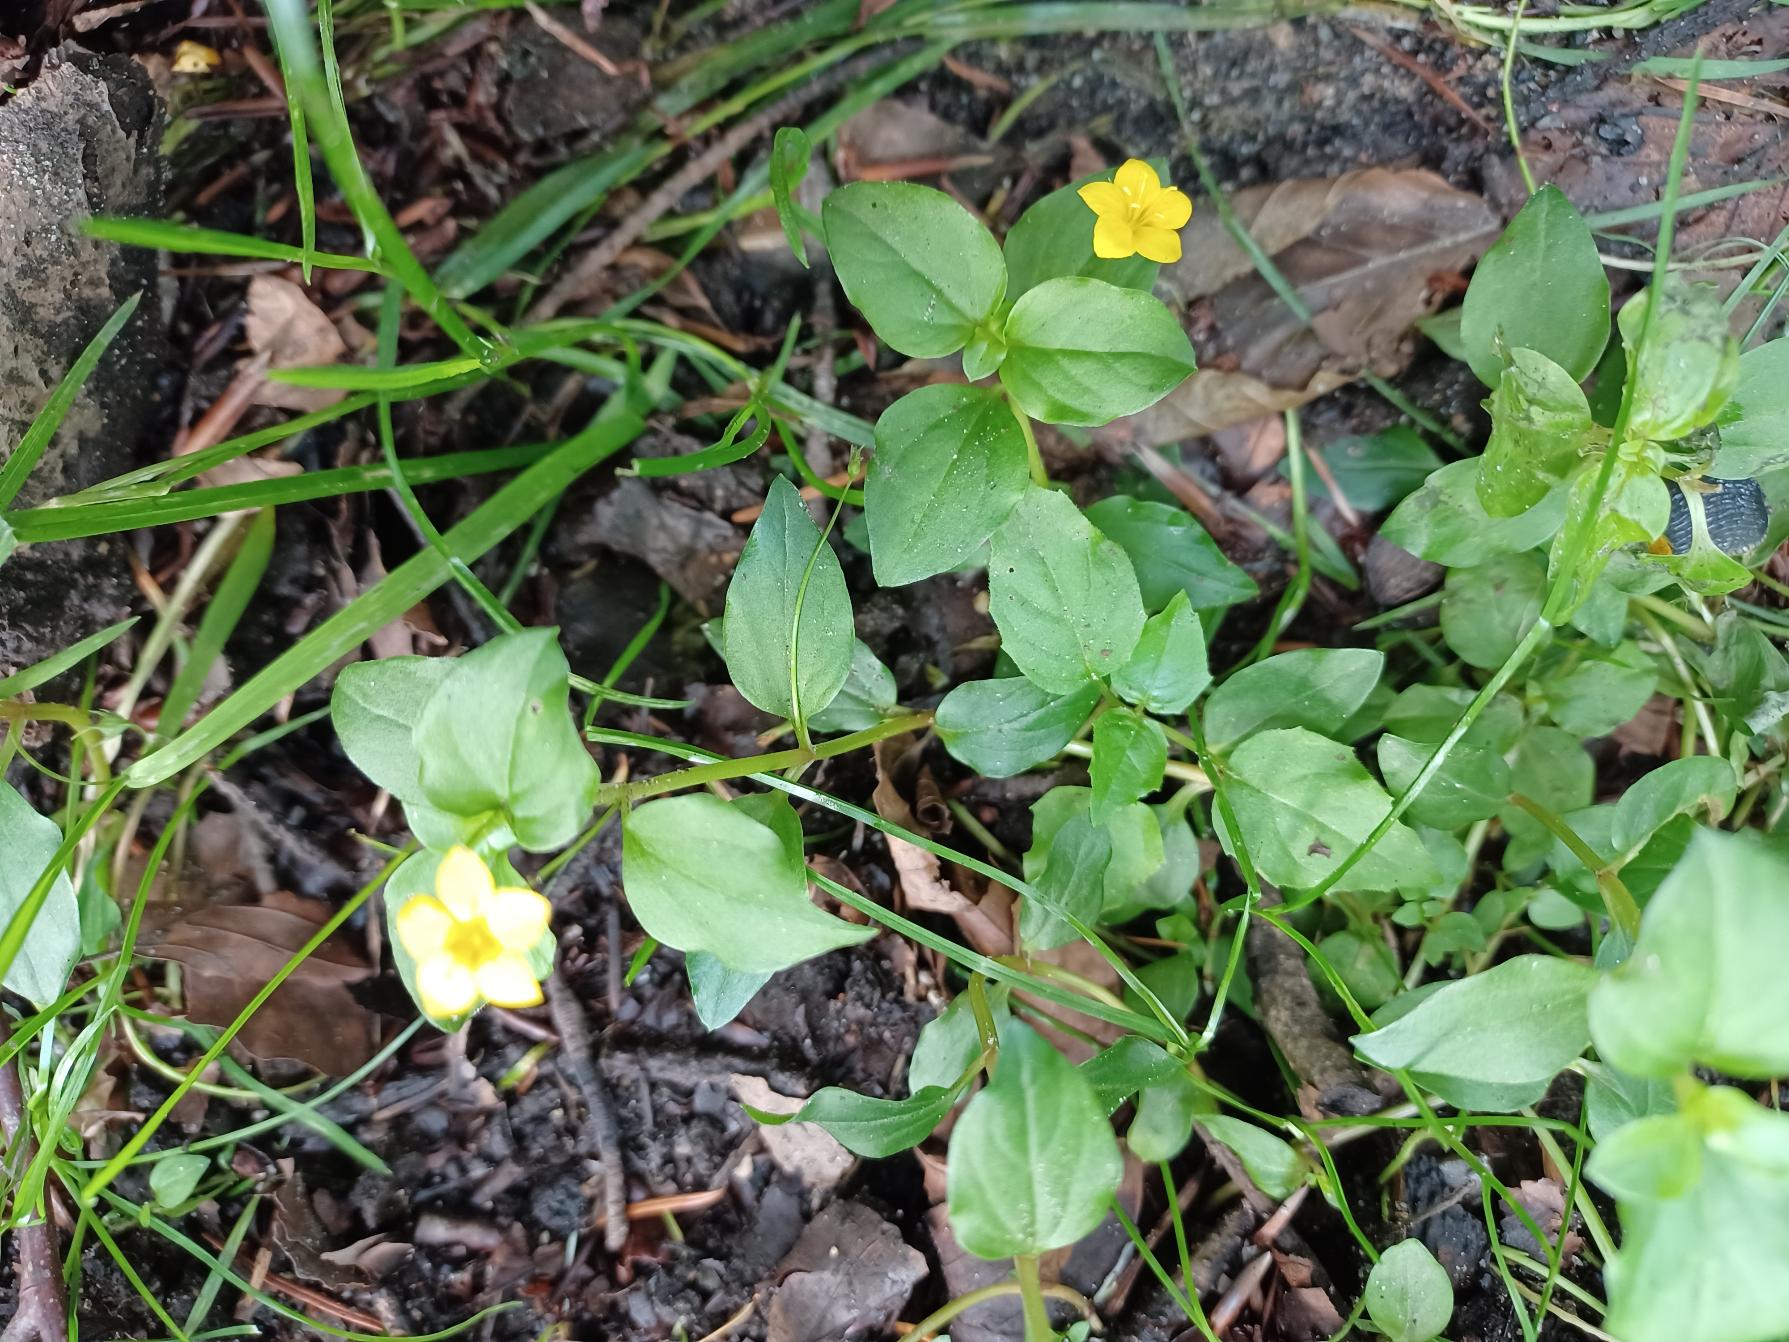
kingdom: Plantae
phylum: Tracheophyta
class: Magnoliopsida
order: Ericales
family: Primulaceae
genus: Lysimachia
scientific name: Lysimachia nemorum
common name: Lund-fredløs
